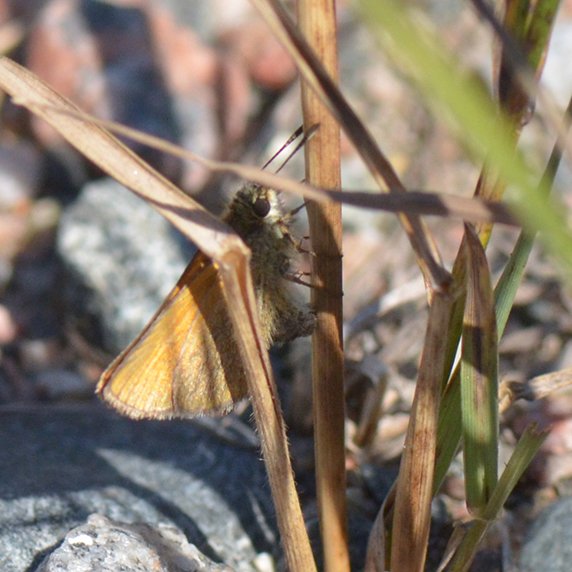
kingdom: Animalia
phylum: Arthropoda
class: Insecta
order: Lepidoptera
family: Hesperiidae
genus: Thymelicus
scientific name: Thymelicus lineola
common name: European Skipper
